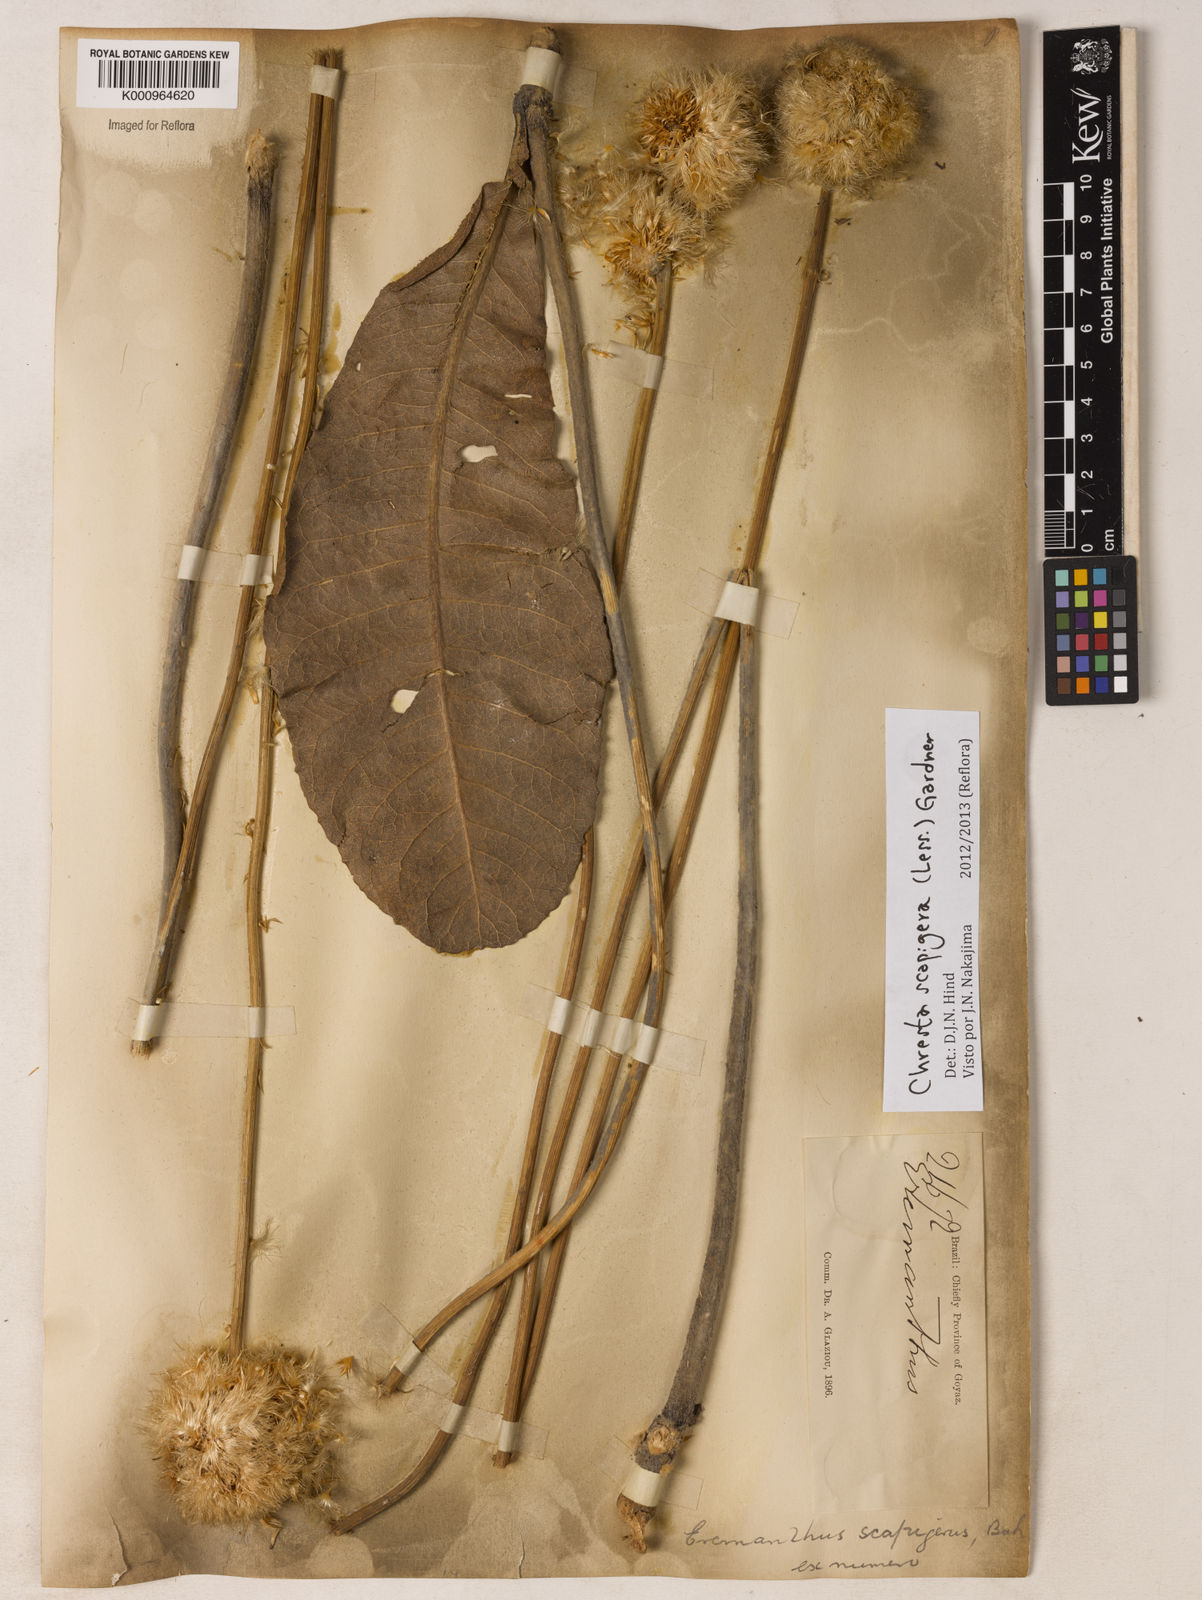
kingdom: Plantae
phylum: Tracheophyta
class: Magnoliopsida
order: Asterales
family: Asteraceae
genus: Chresta
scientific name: Chresta scapigera
